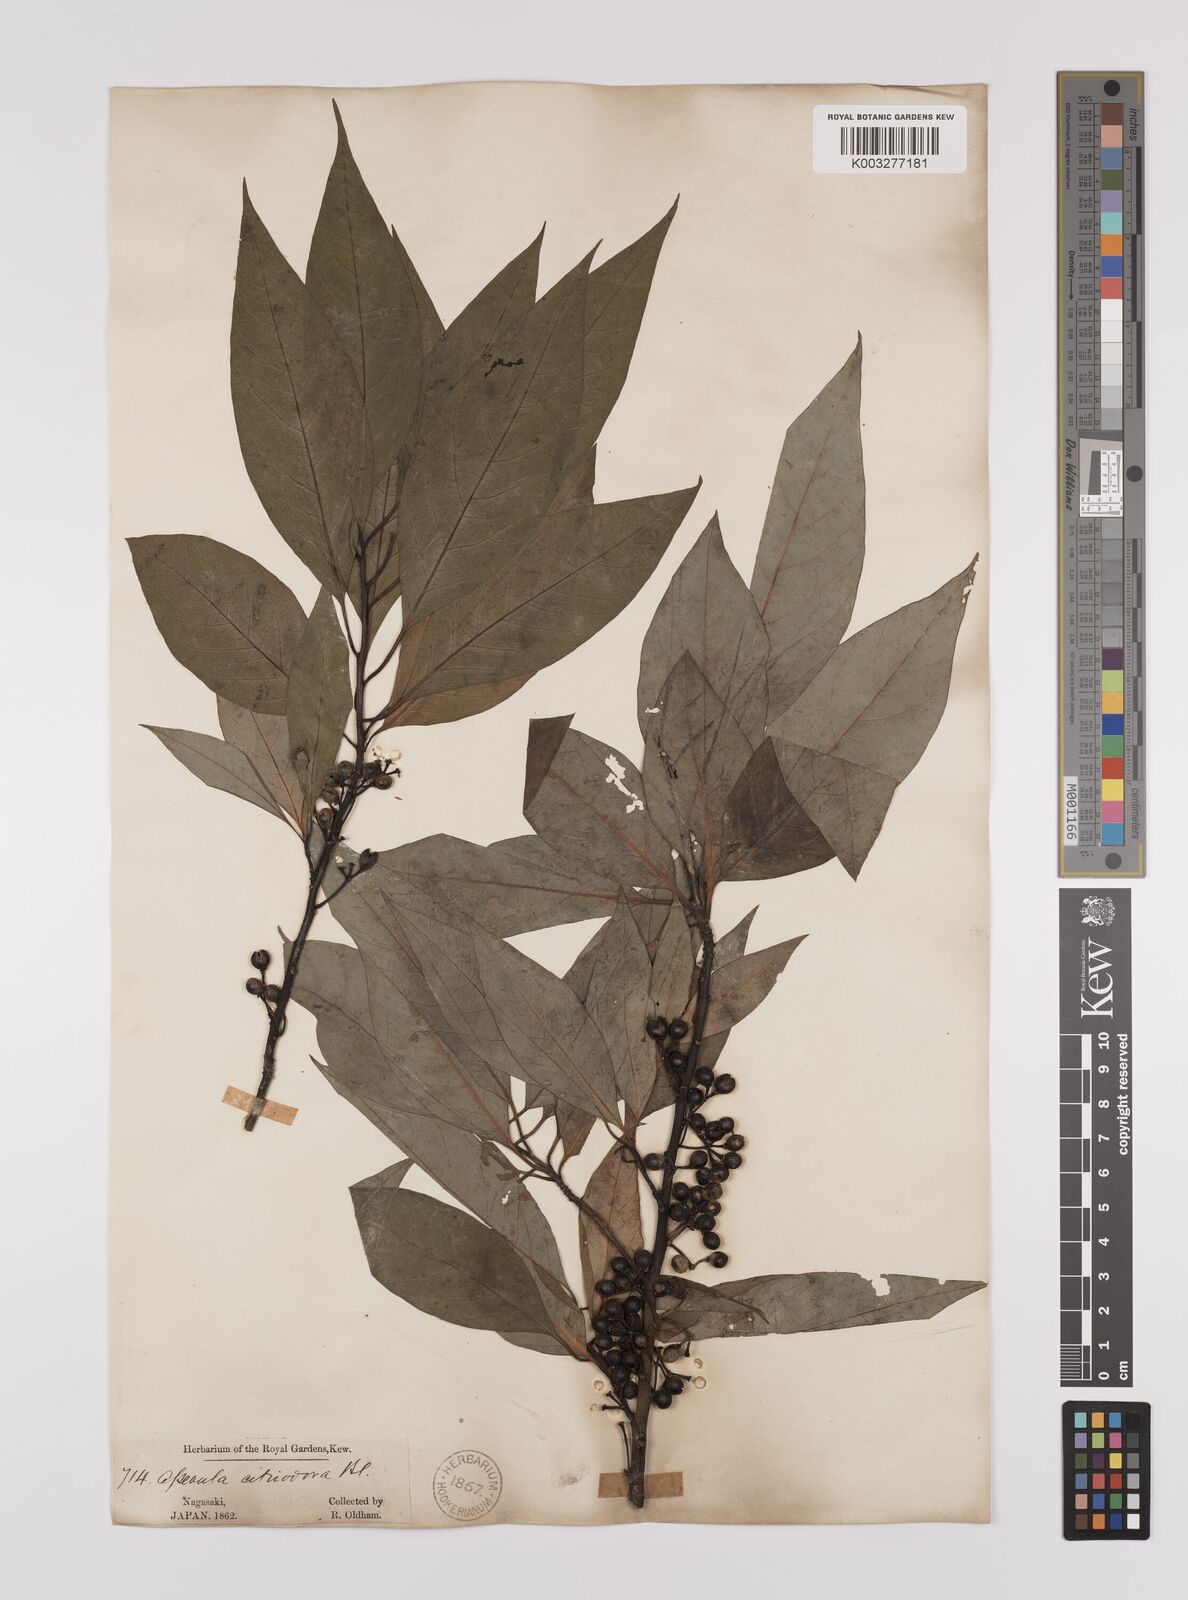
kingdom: Plantae
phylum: Tracheophyta
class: Magnoliopsida
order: Laurales
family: Lauraceae
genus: Lindera
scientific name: Lindera citriodora
